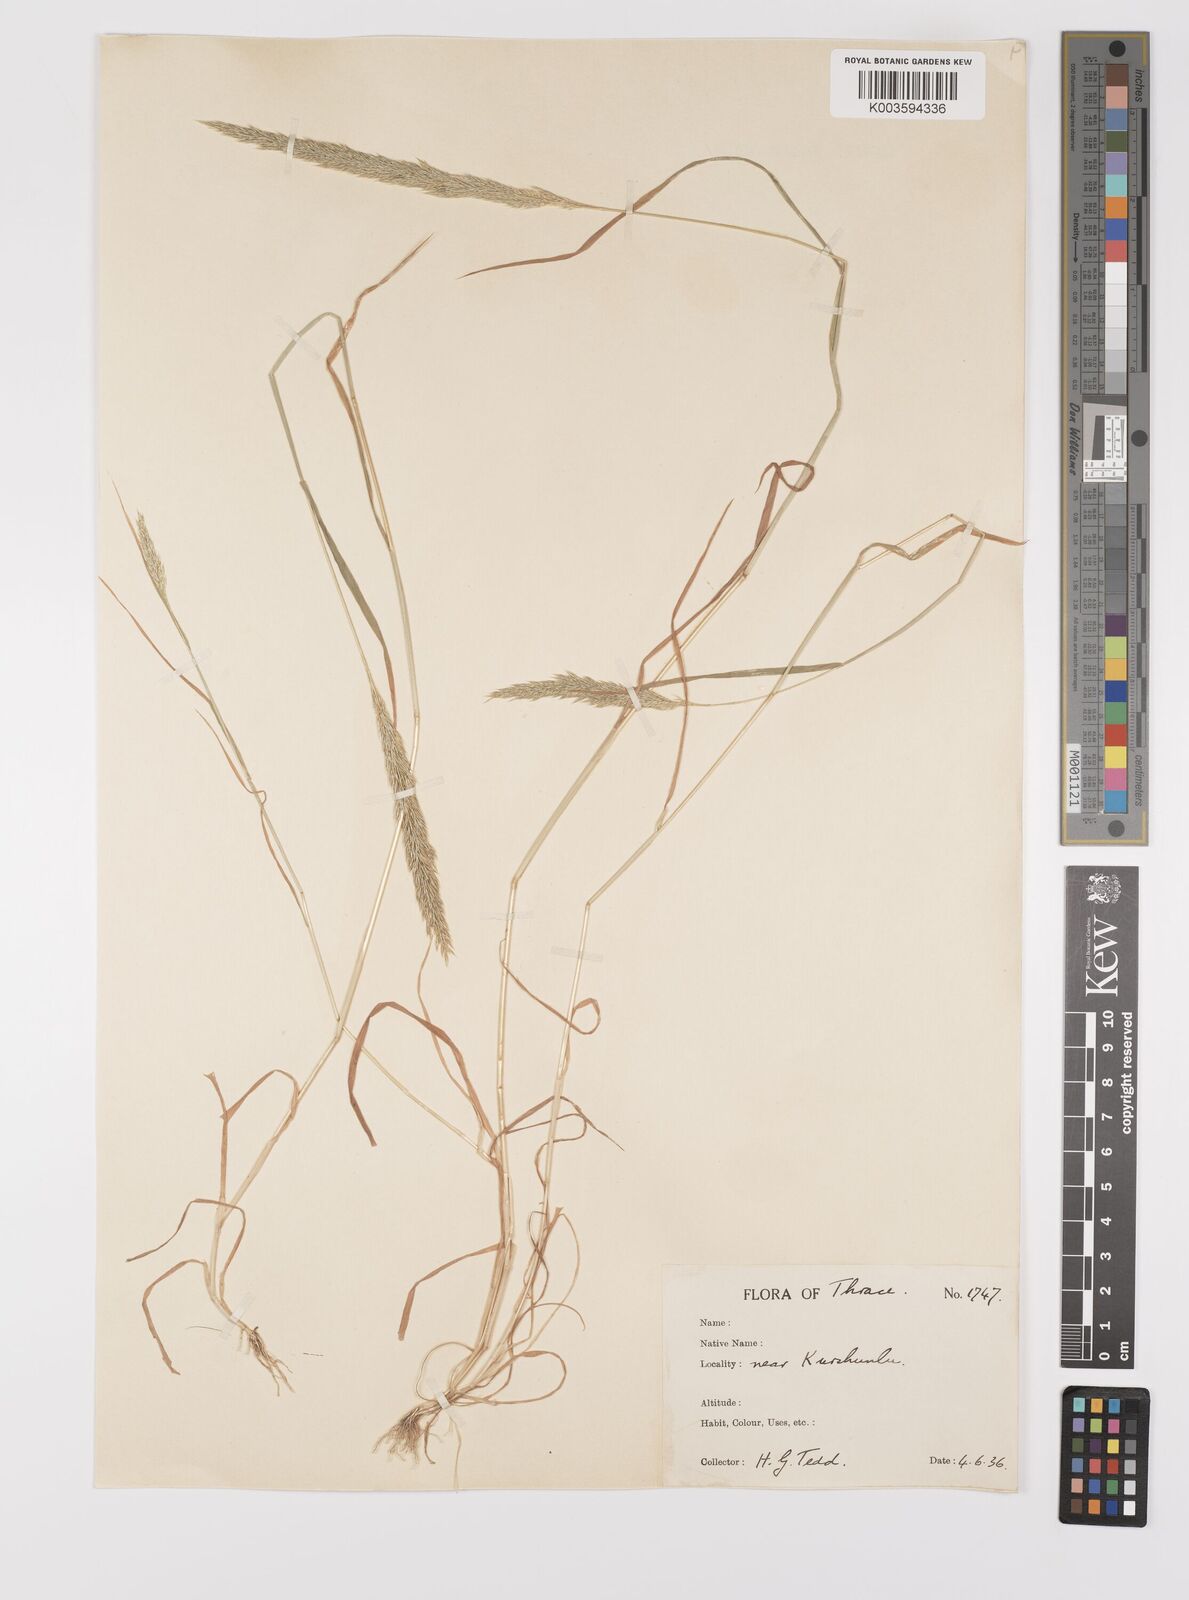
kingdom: Plantae
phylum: Tracheophyta
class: Liliopsida
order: Poales
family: Poaceae
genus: Gastridium
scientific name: Gastridium ventricosum
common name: Nit-grass
